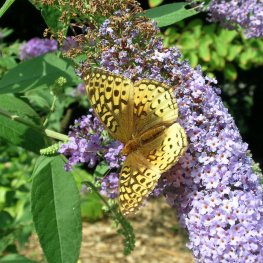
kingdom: Animalia
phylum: Arthropoda
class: Insecta
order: Lepidoptera
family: Nymphalidae
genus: Speyeria
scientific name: Speyeria cybele
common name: Great Spangled Fritillary
